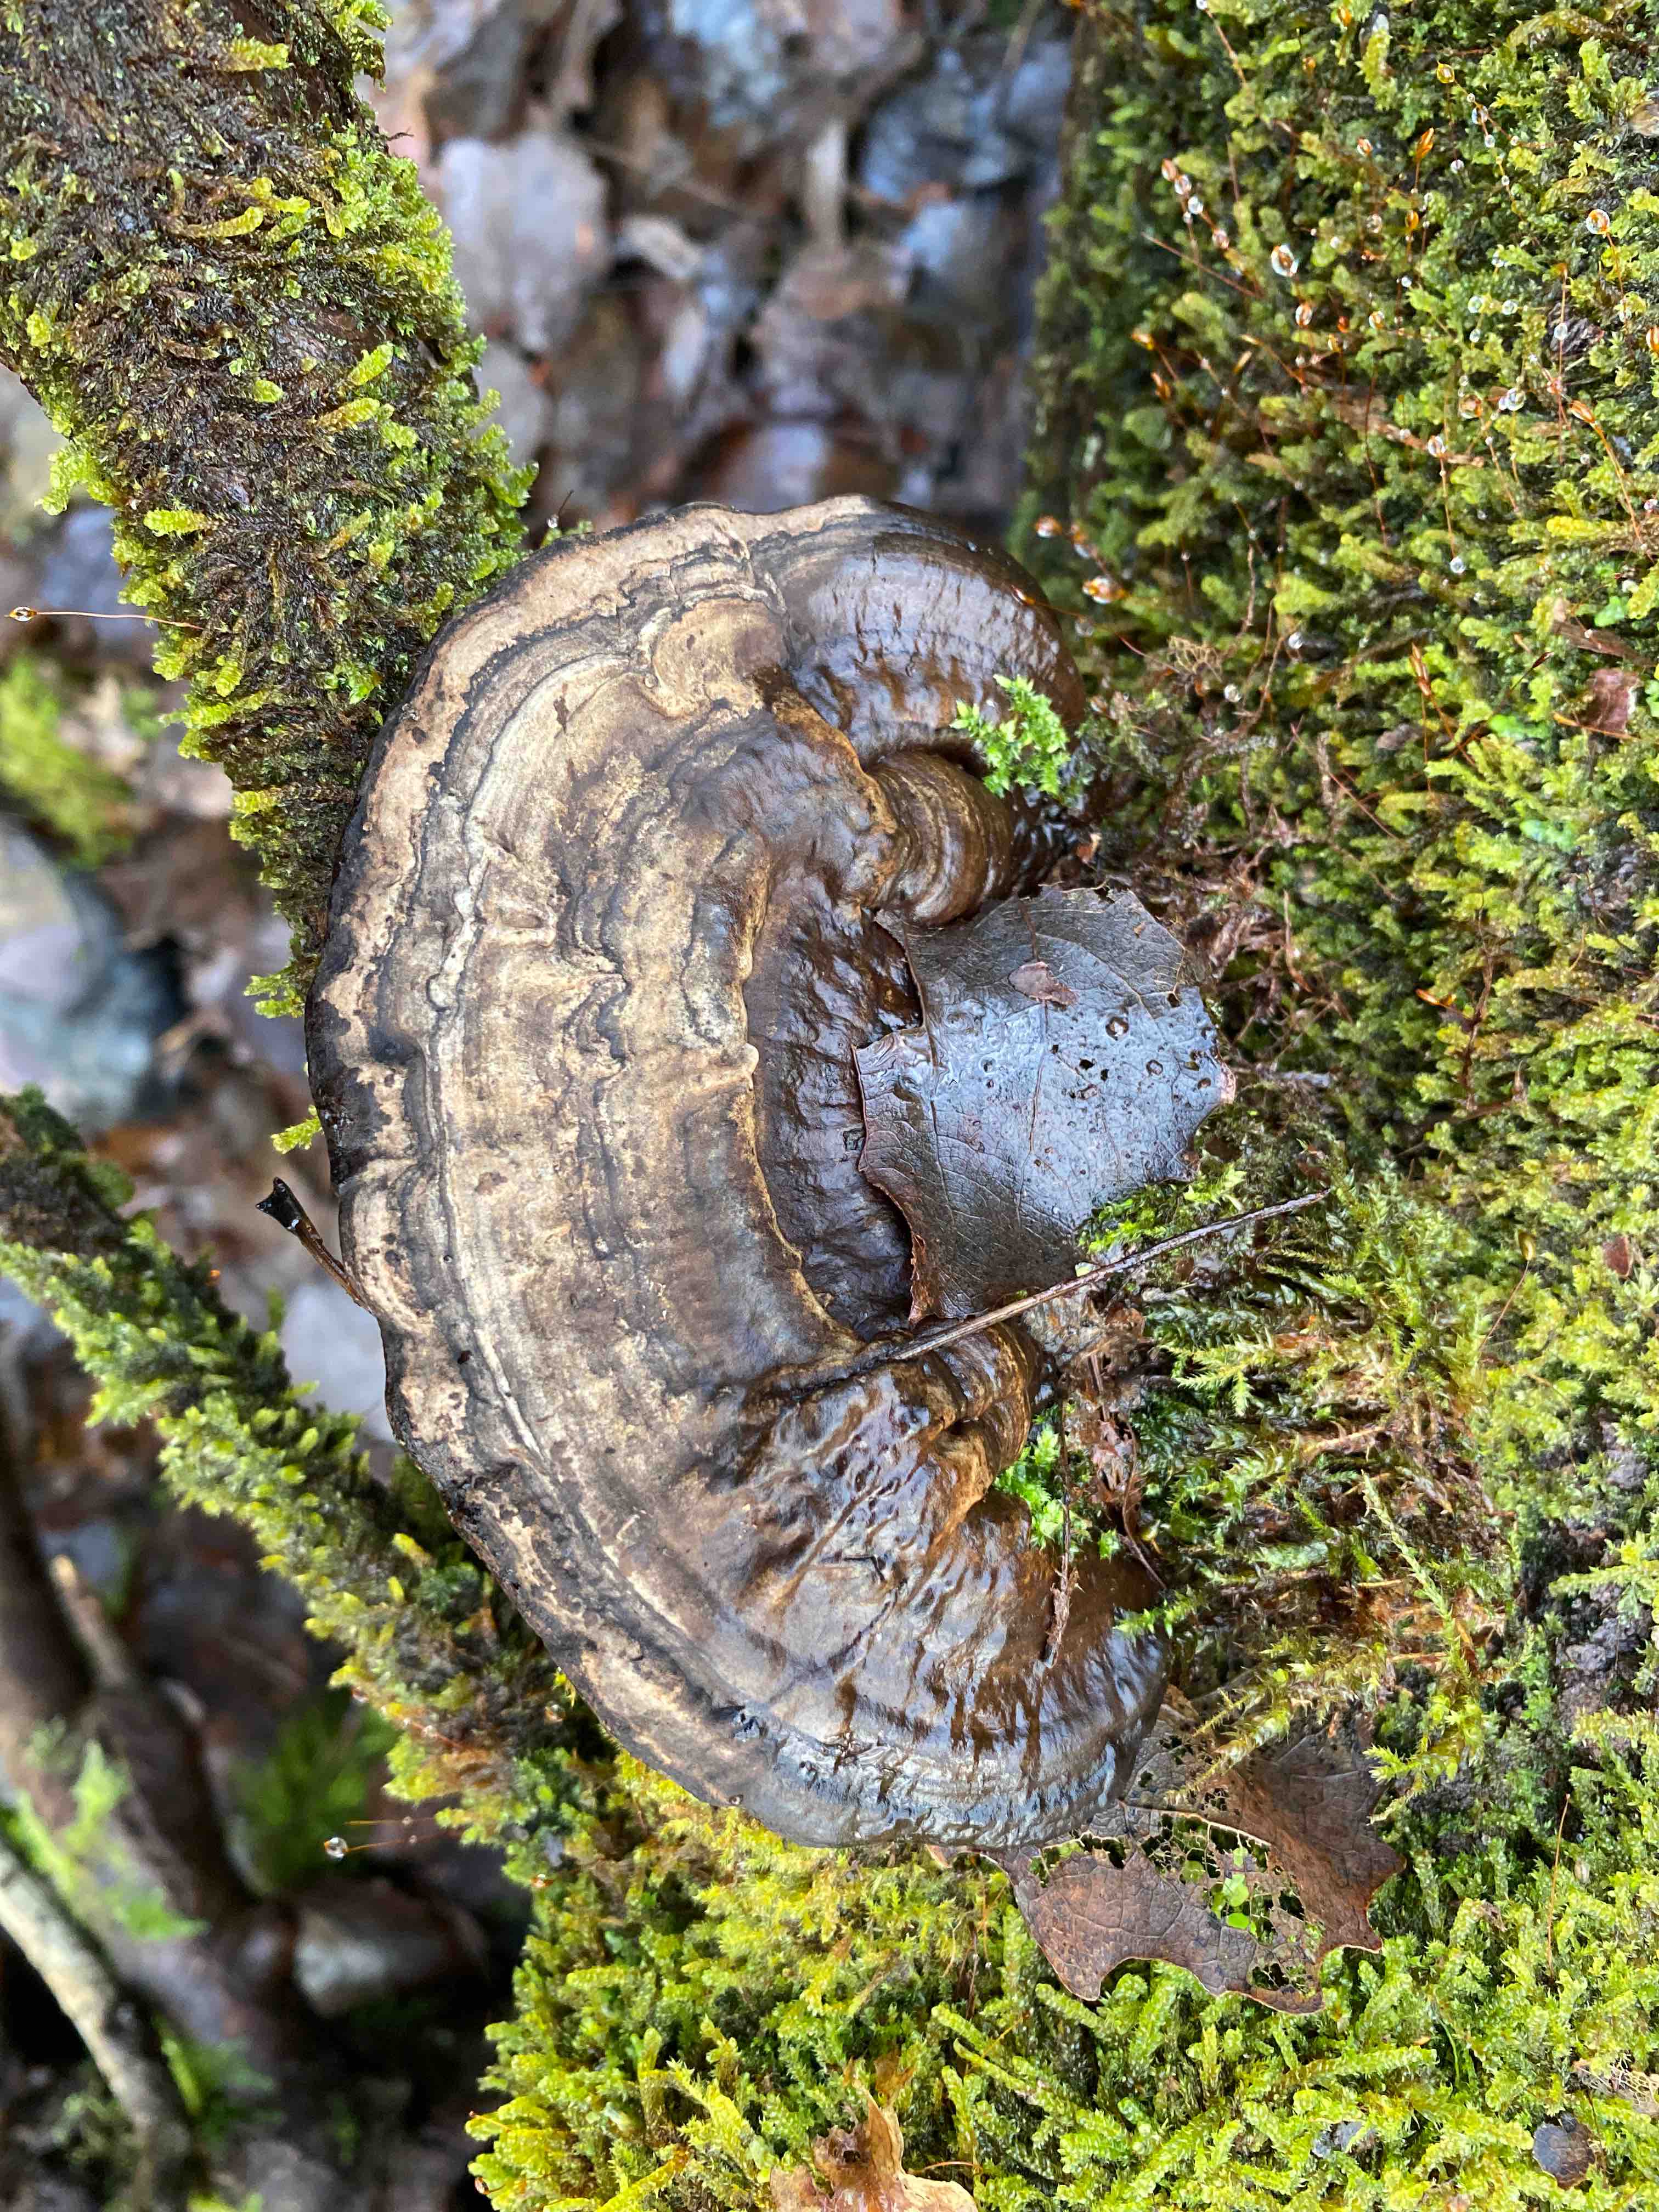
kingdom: Fungi
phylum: Basidiomycota
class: Agaricomycetes
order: Polyporales
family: Polyporaceae
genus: Ganoderma
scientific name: Ganoderma applanatum
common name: flad lakporesvamp
